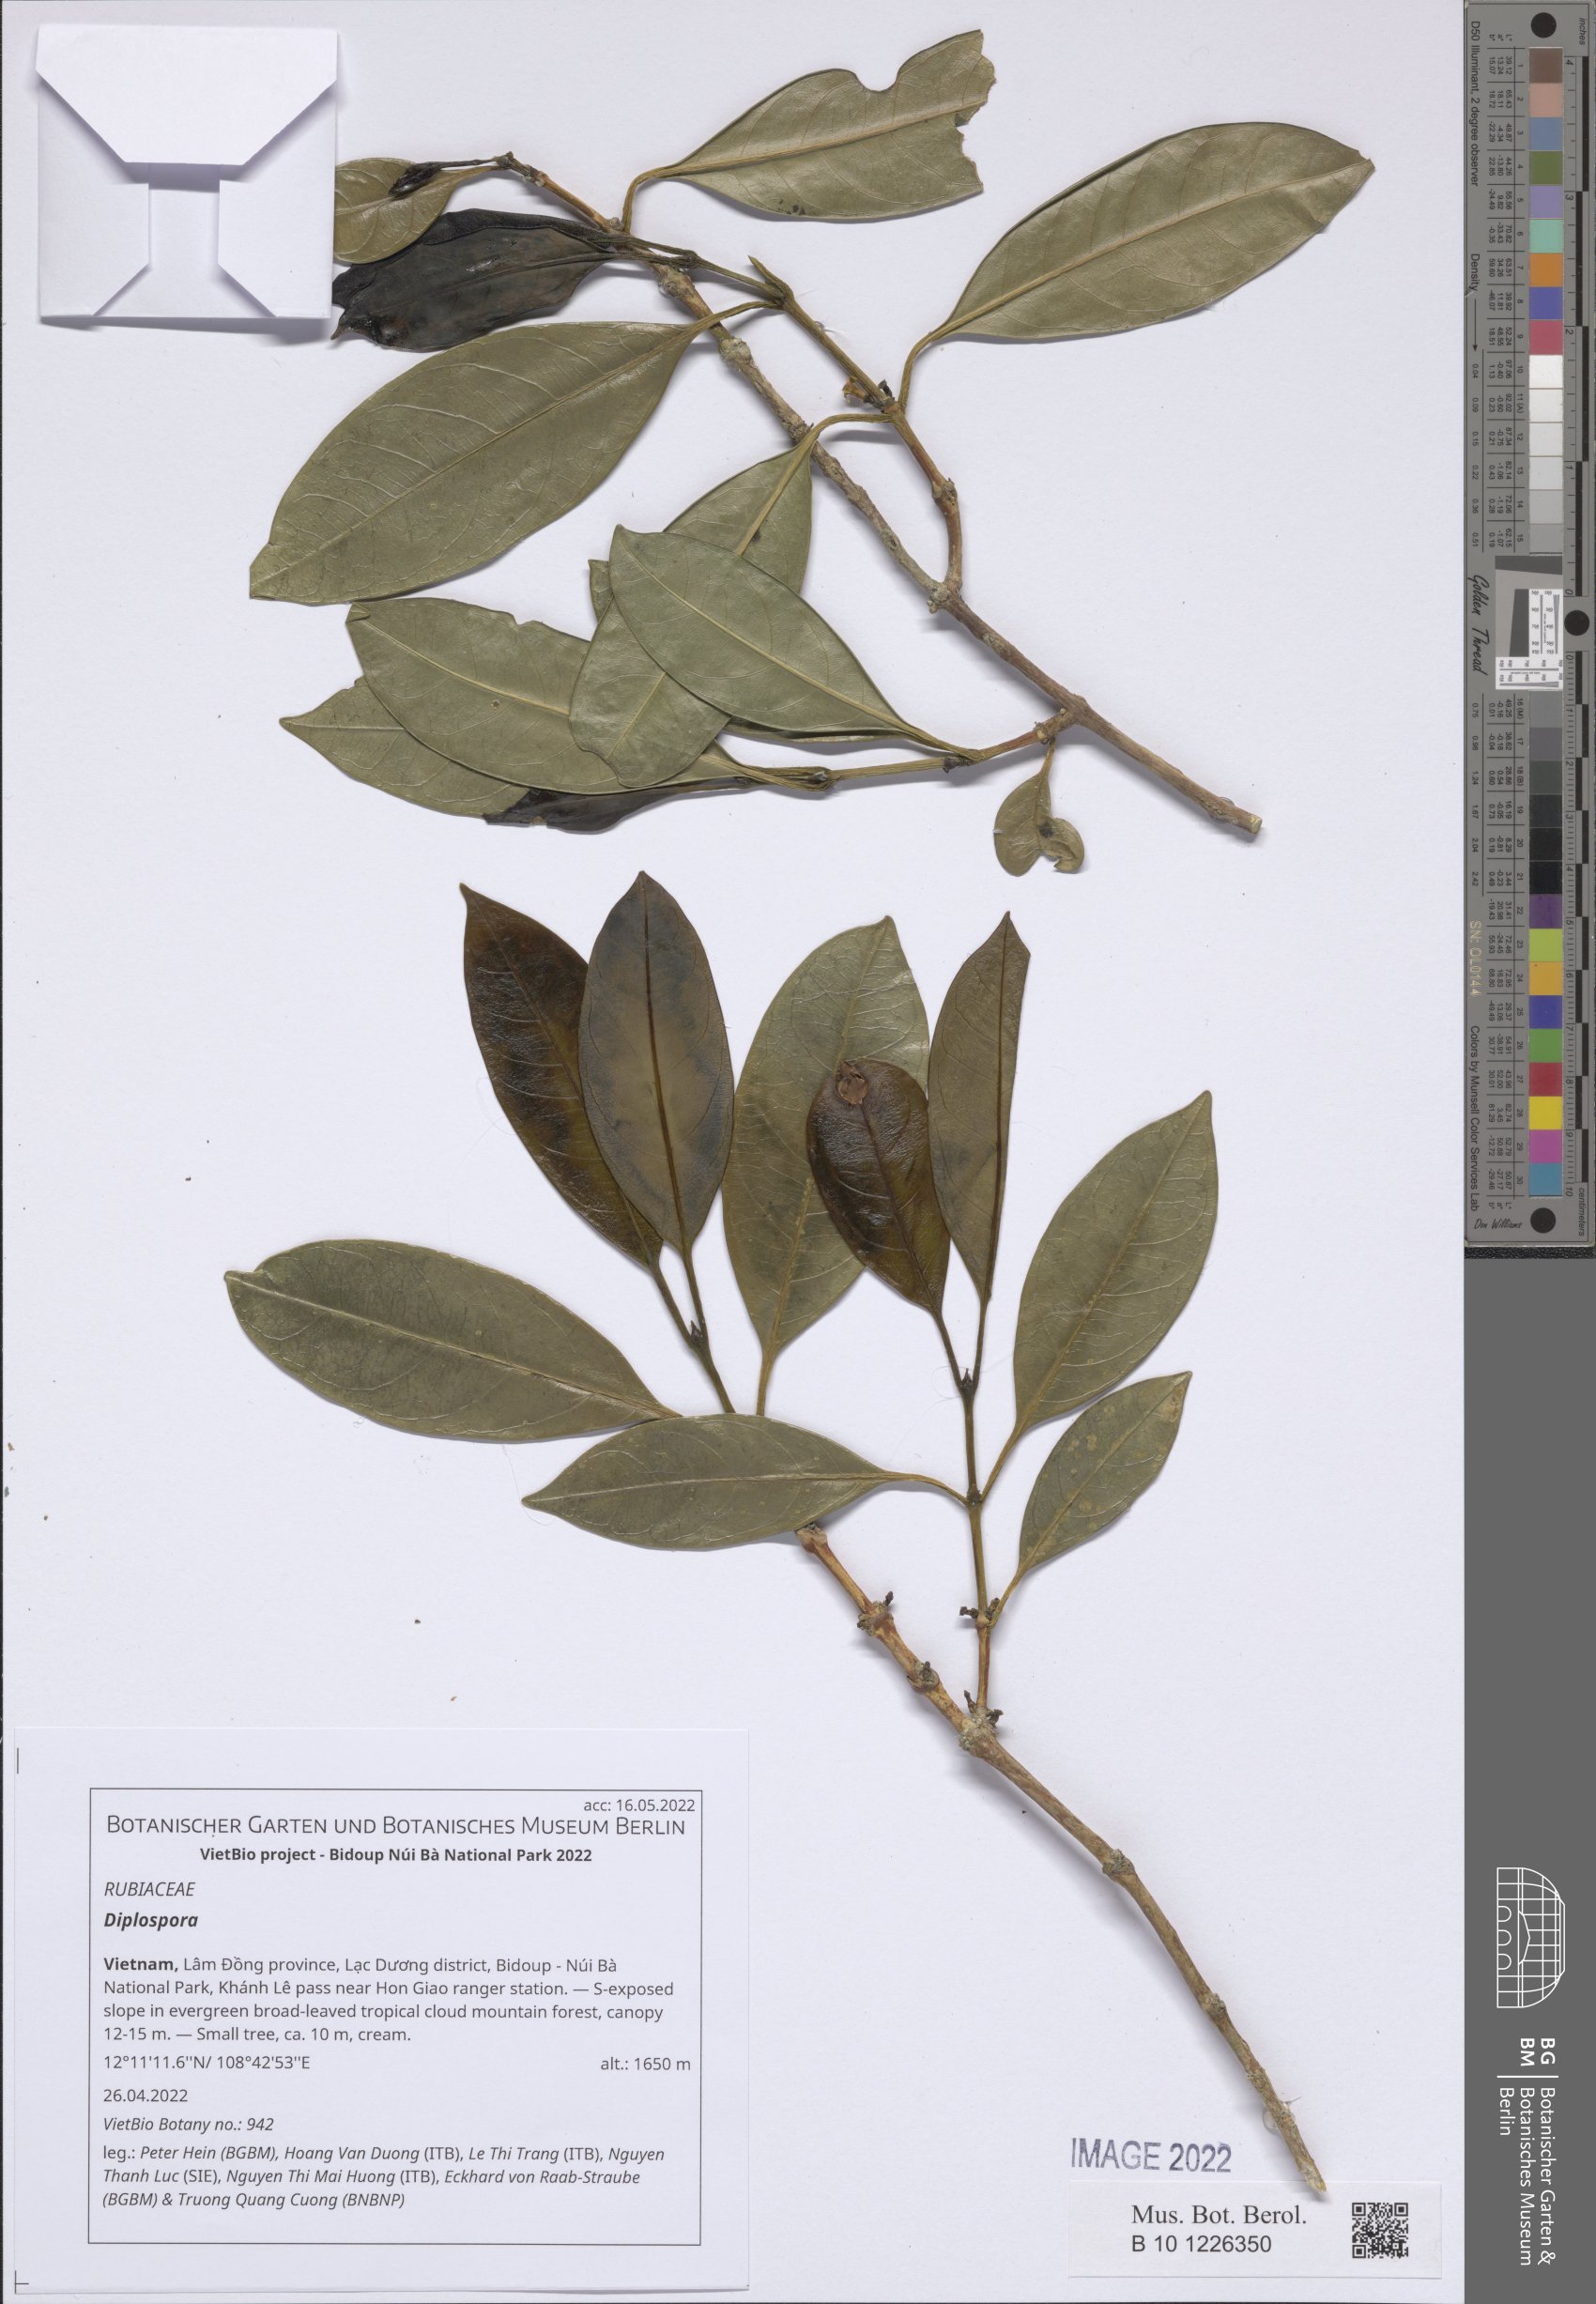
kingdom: Plantae
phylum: Tracheophyta
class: Magnoliopsida
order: Gentianales
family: Rubiaceae
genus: Diplospora
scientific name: Diplospora
